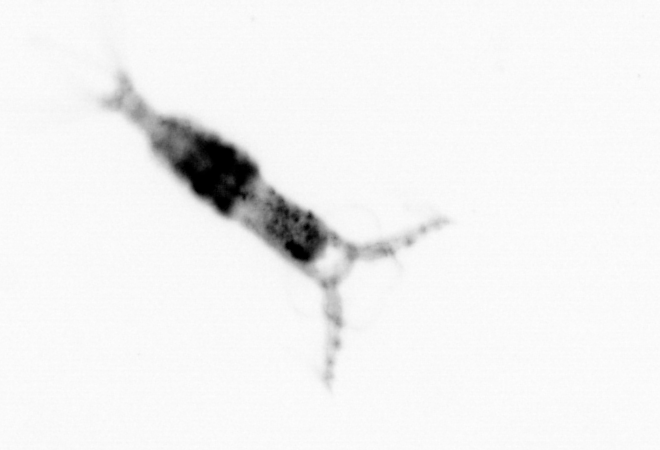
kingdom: Animalia
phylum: Arthropoda
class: Copepoda
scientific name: Copepoda
